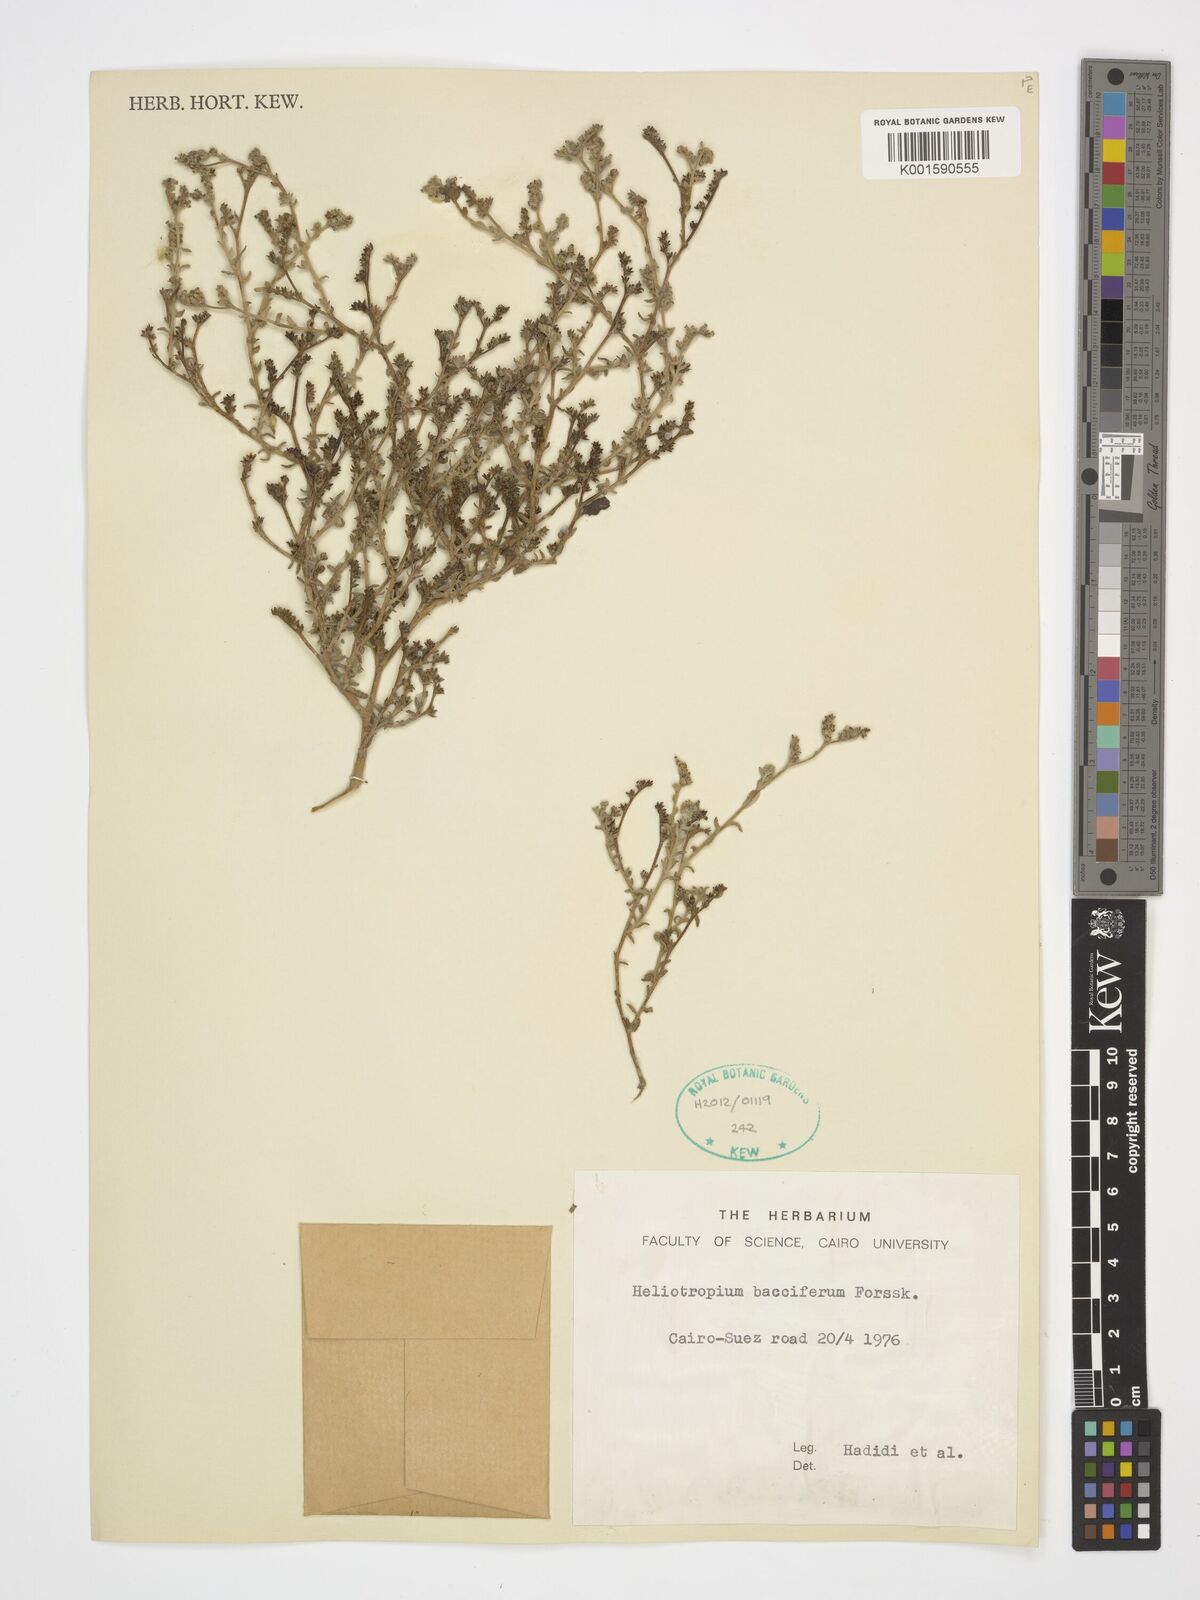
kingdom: Plantae
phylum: Tracheophyta
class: Magnoliopsida
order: Boraginales
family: Heliotropiaceae
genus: Heliotropium
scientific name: Heliotropium bacciferum
